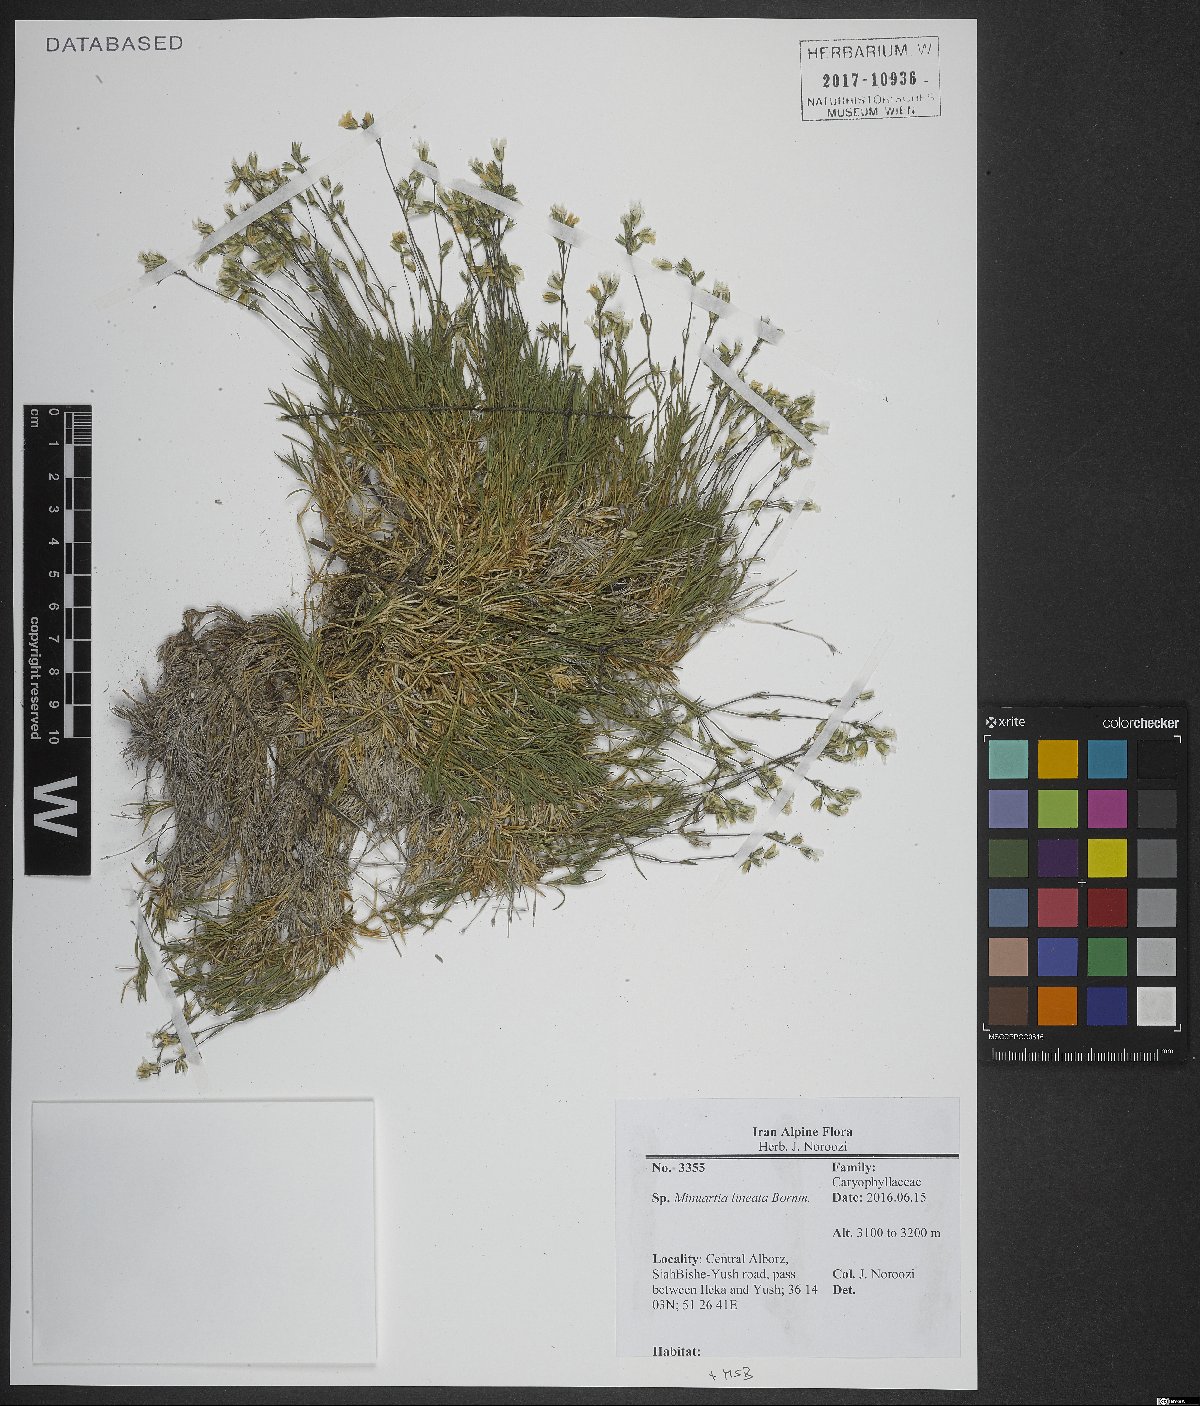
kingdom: Plantae
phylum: Tracheophyta
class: Magnoliopsida
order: Caryophyllales
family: Caryophyllaceae
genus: Sabulina
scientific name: Sabulina lineata
